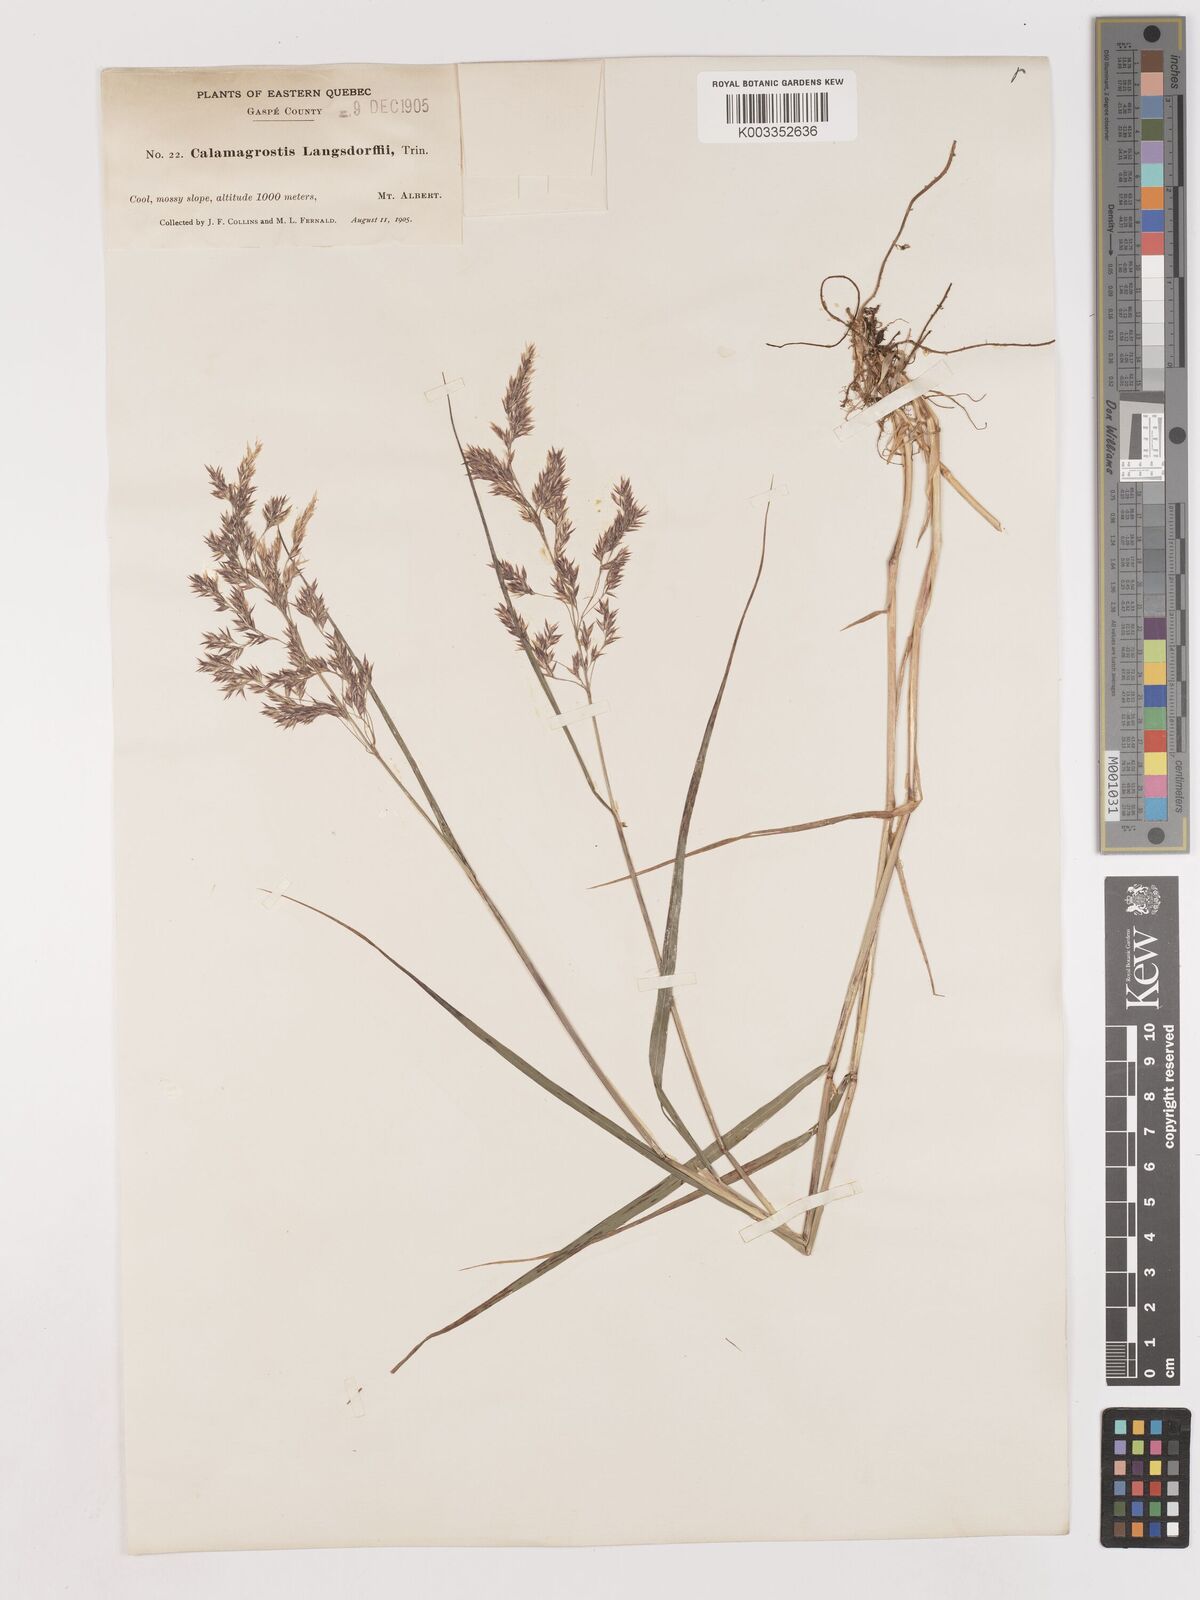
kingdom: Plantae
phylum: Tracheophyta
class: Liliopsida
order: Poales
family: Poaceae
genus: Calamagrostis
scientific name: Calamagrostis canadensis
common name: Canada bluejoint
